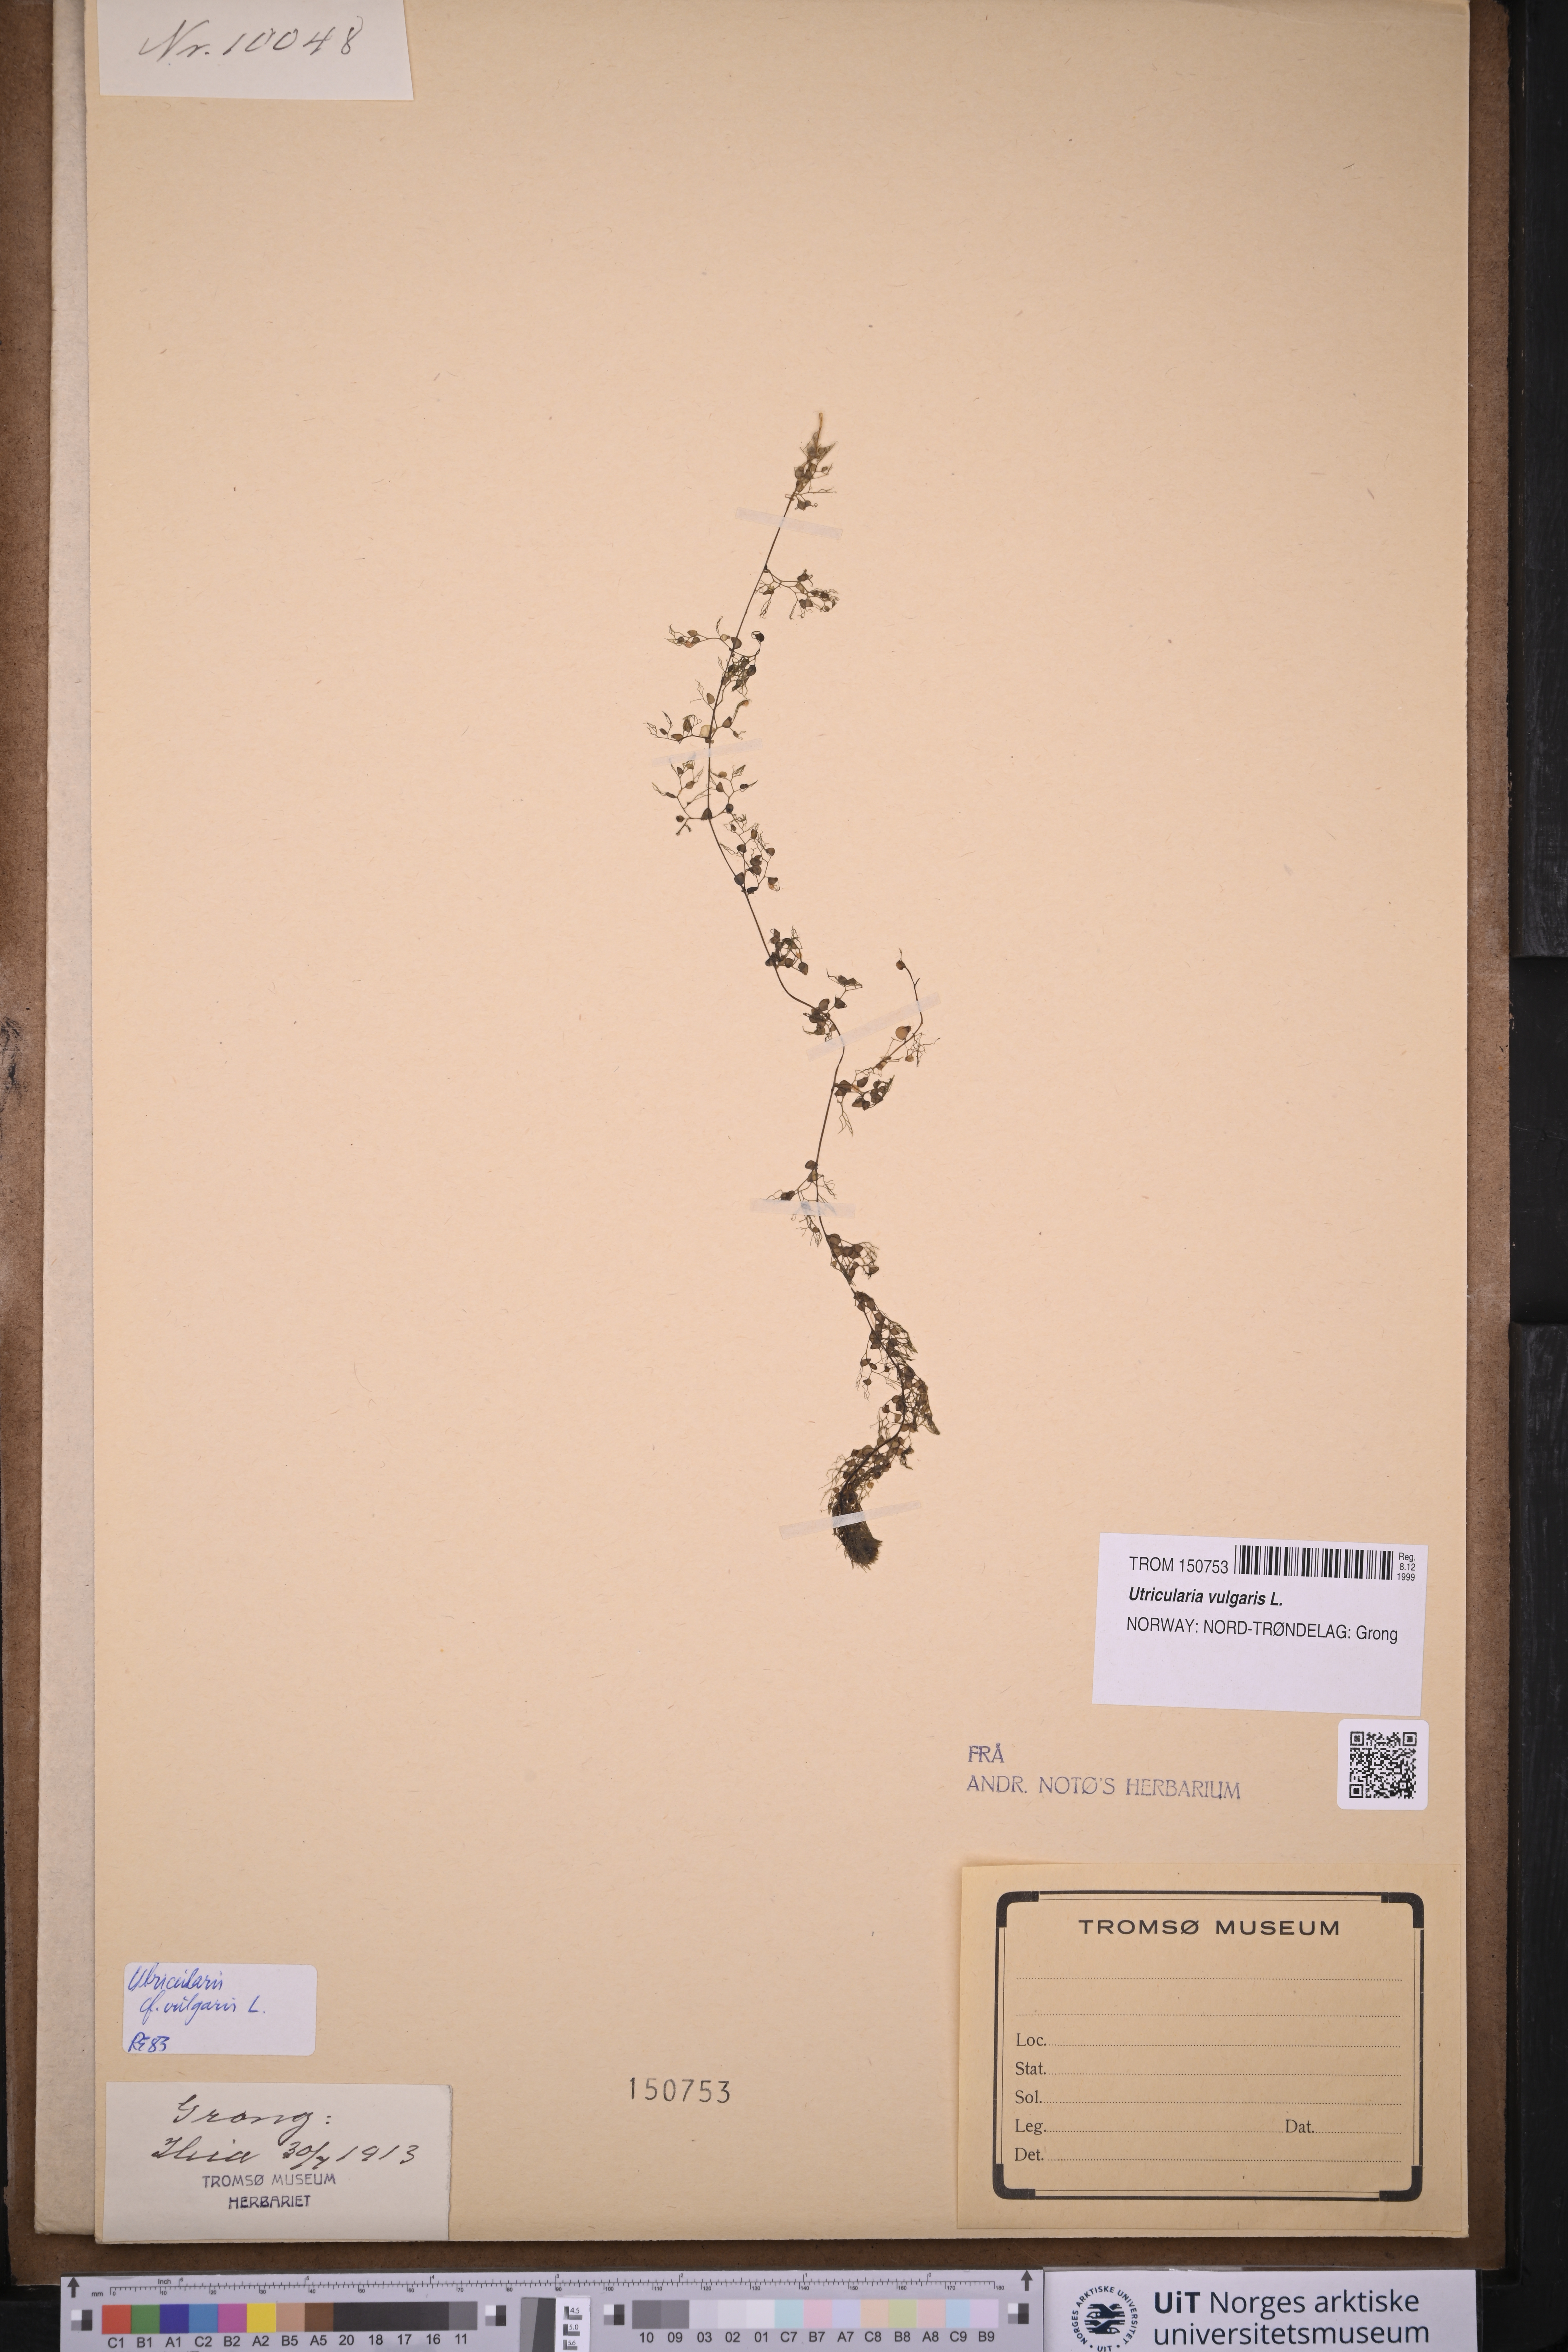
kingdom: Plantae
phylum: Tracheophyta
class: Magnoliopsida
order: Lamiales
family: Lentibulariaceae
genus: Utricularia
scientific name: Utricularia vulgaris
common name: Greater bladderwort
